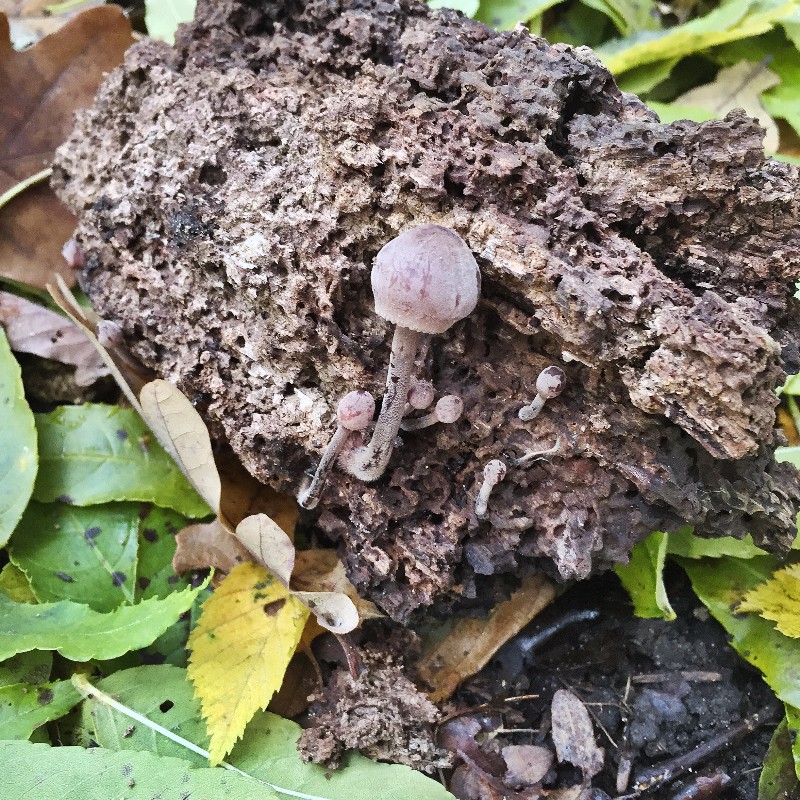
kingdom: Fungi
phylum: Basidiomycota
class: Agaricomycetes
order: Agaricales
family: Mycenaceae
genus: Mycena
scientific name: Mycena haematopus
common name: blødende huesvamp
